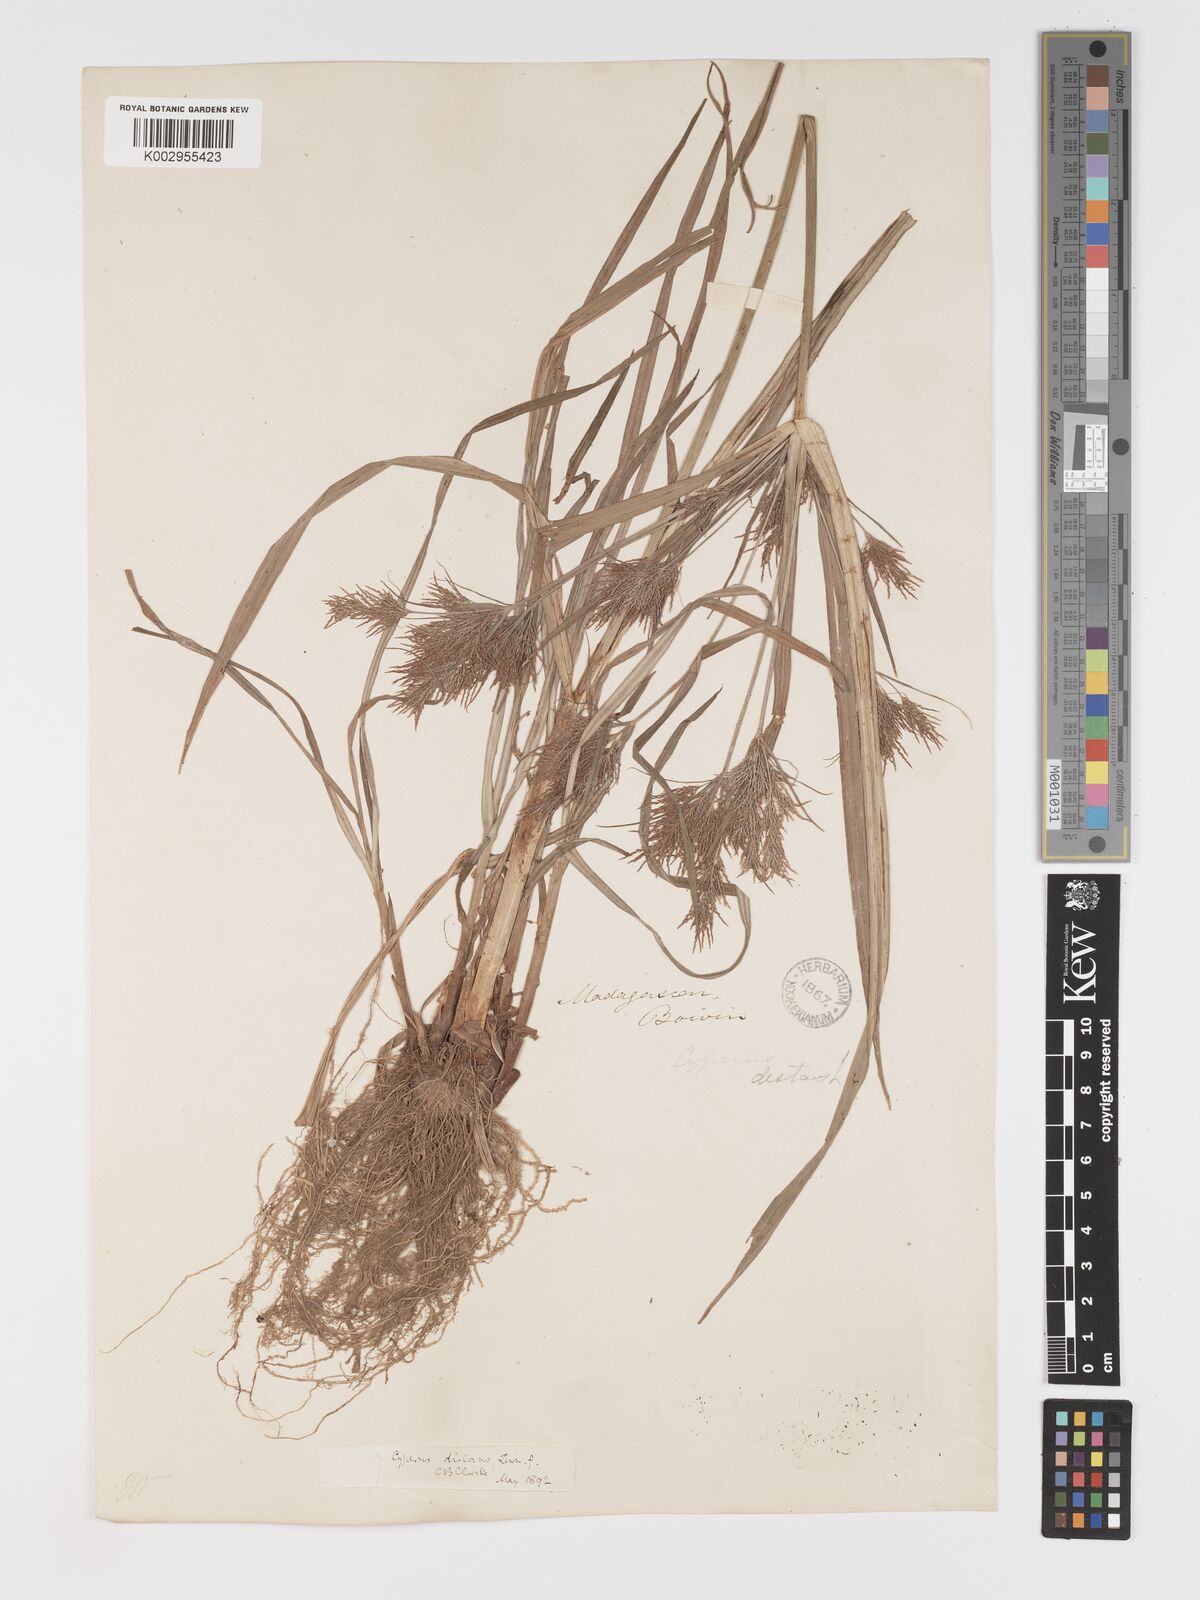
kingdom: Plantae
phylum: Tracheophyta
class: Liliopsida
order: Poales
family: Cyperaceae
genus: Cyperus
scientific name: Cyperus distans
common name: Slender cyperus
